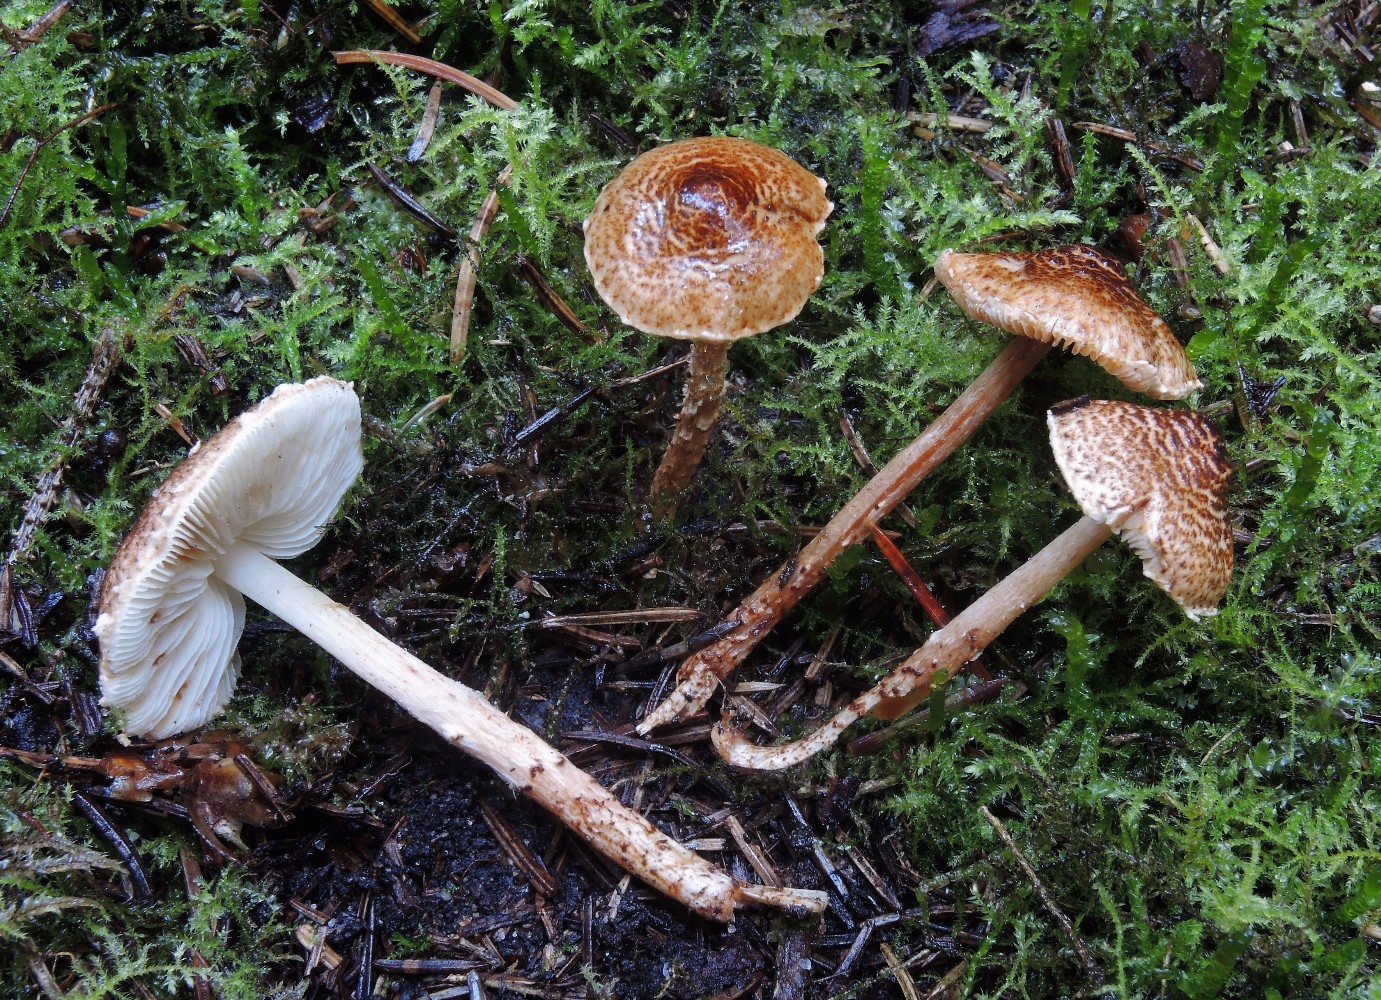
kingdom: Fungi
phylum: Basidiomycota
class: Agaricomycetes
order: Agaricales
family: Agaricaceae
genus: Lepiota
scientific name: Lepiota castanea
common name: kastaniebrun parasolhat
